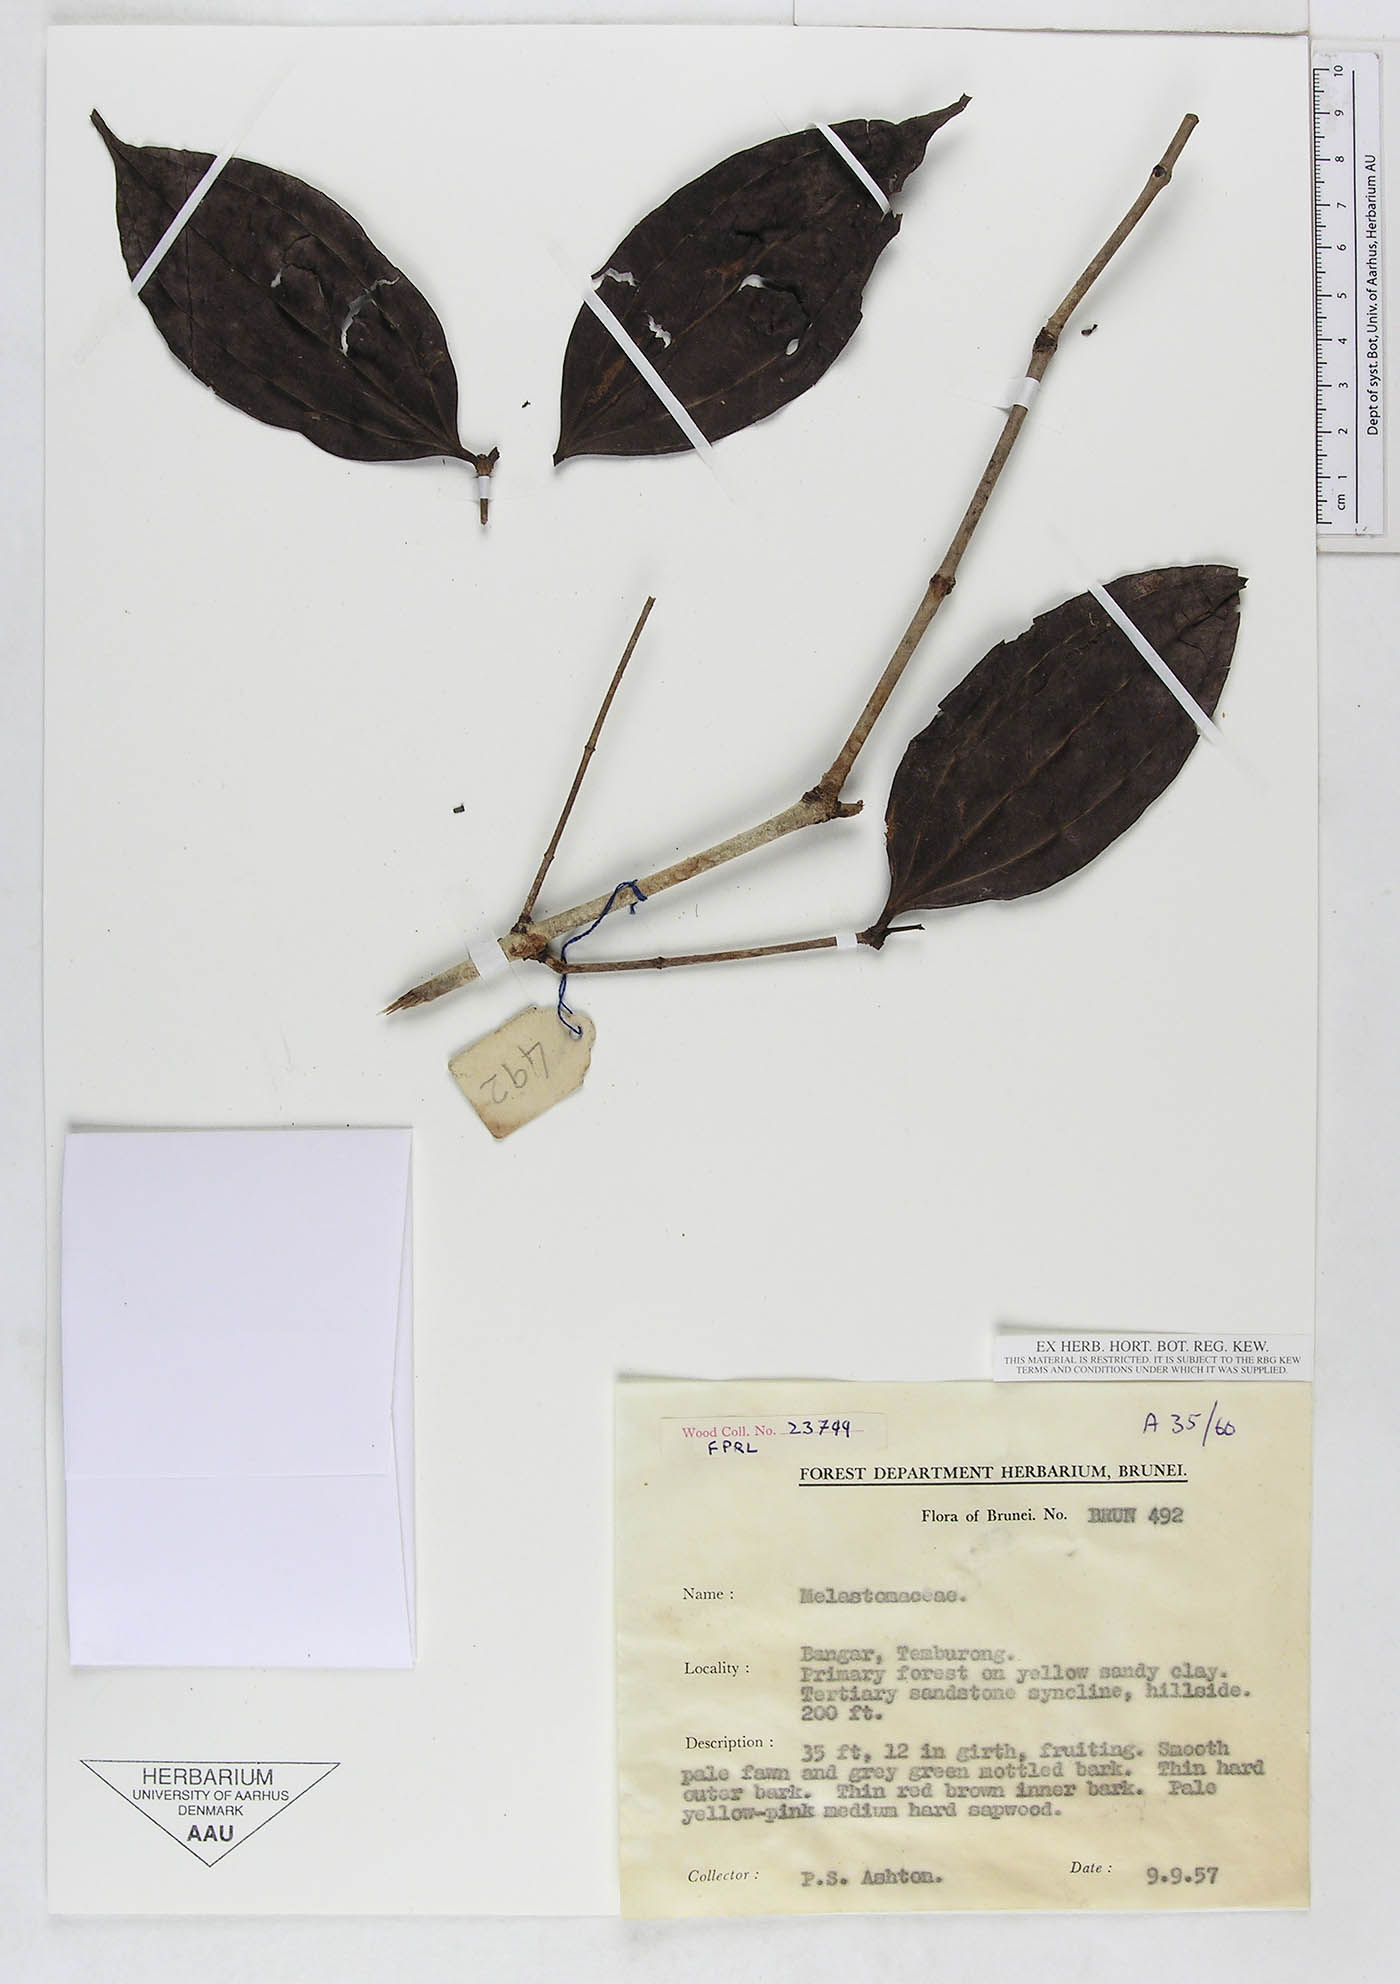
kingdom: Plantae
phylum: Tracheophyta
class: Magnoliopsida
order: Myrtales
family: Melastomataceae
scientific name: Melastomataceae
